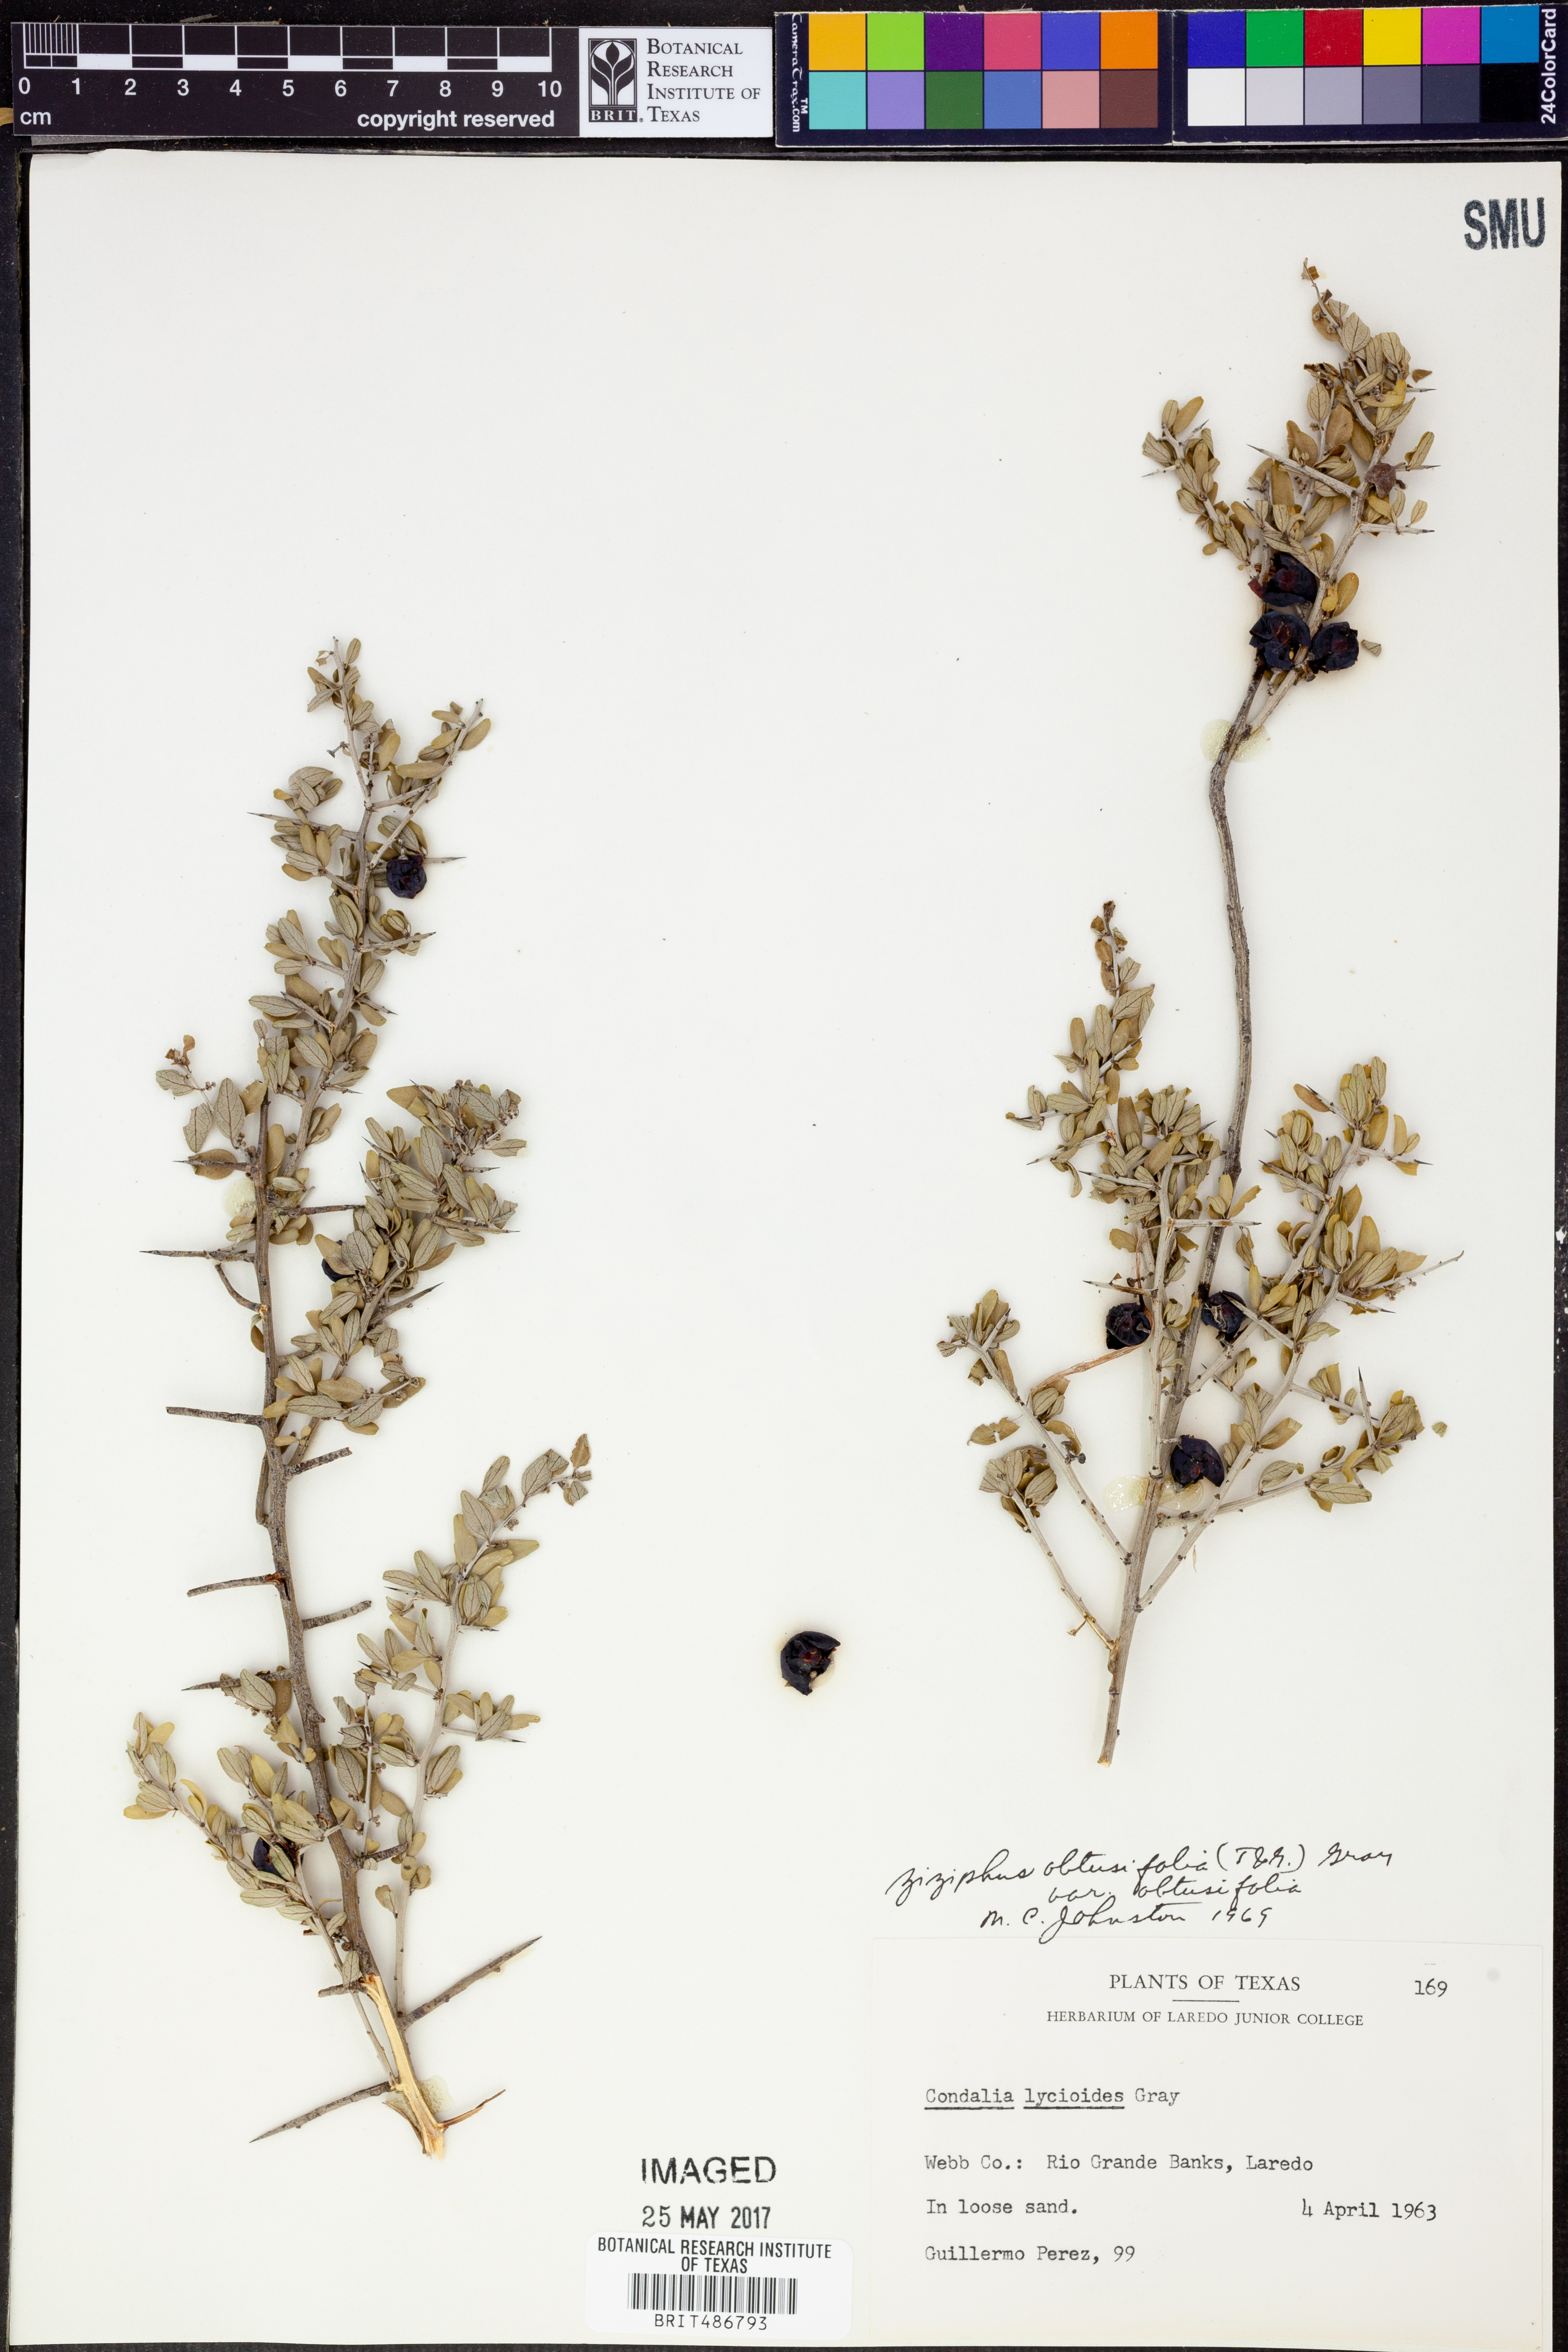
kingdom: Plantae
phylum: Tracheophyta
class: Magnoliopsida
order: Rosales
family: Rhamnaceae
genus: Sarcomphalus
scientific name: Sarcomphalus obtusifolius
